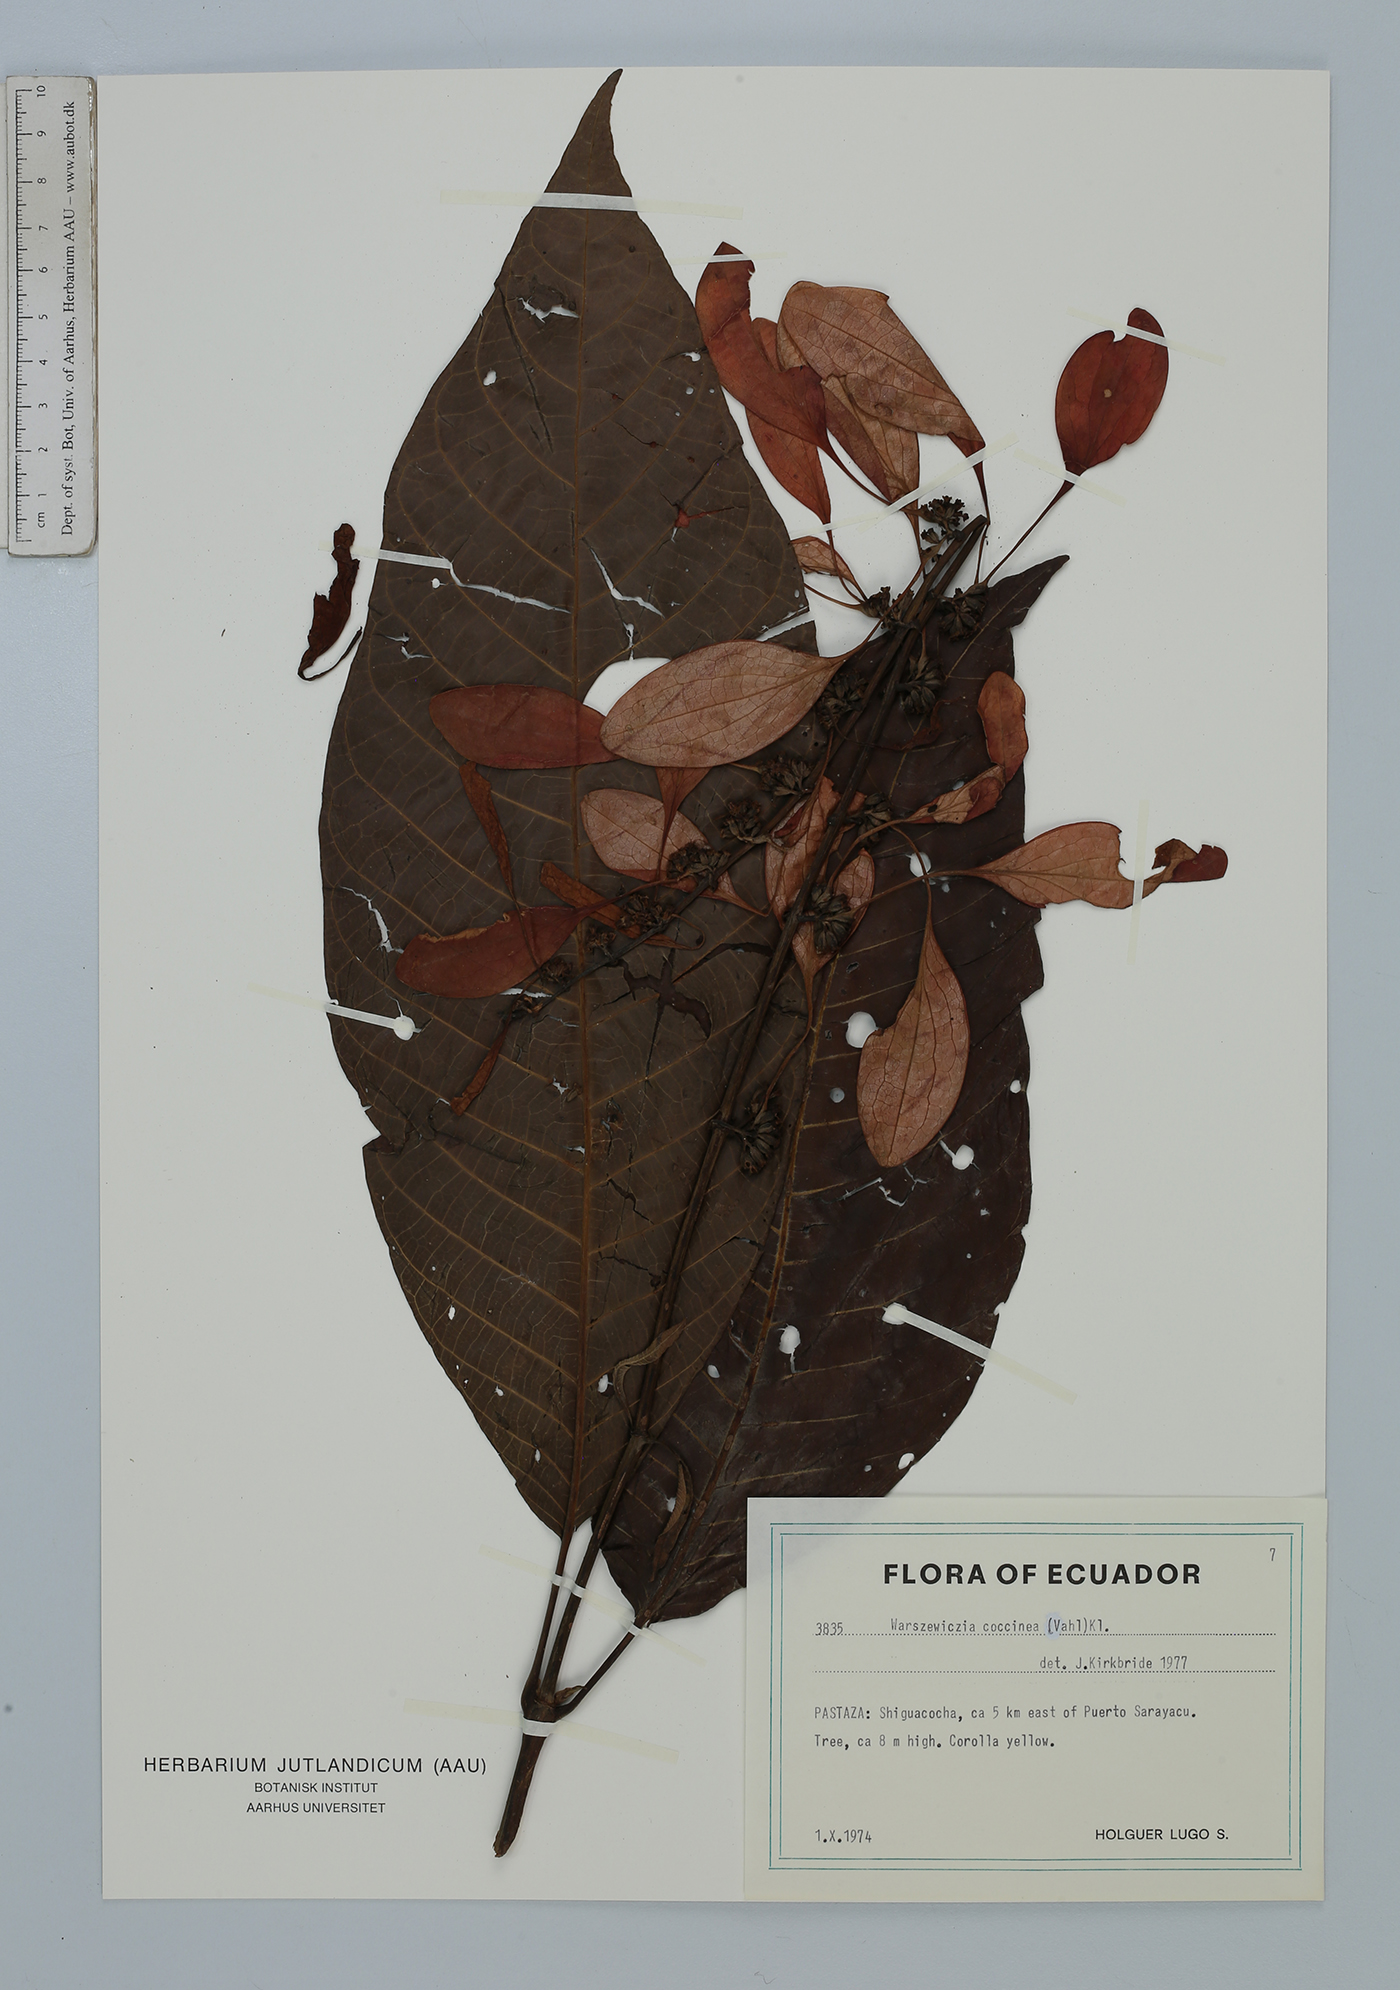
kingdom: Plantae
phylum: Tracheophyta
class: Magnoliopsida
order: Gentianales
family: Rubiaceae
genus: Warszewiczia
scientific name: Warszewiczia coccinea
